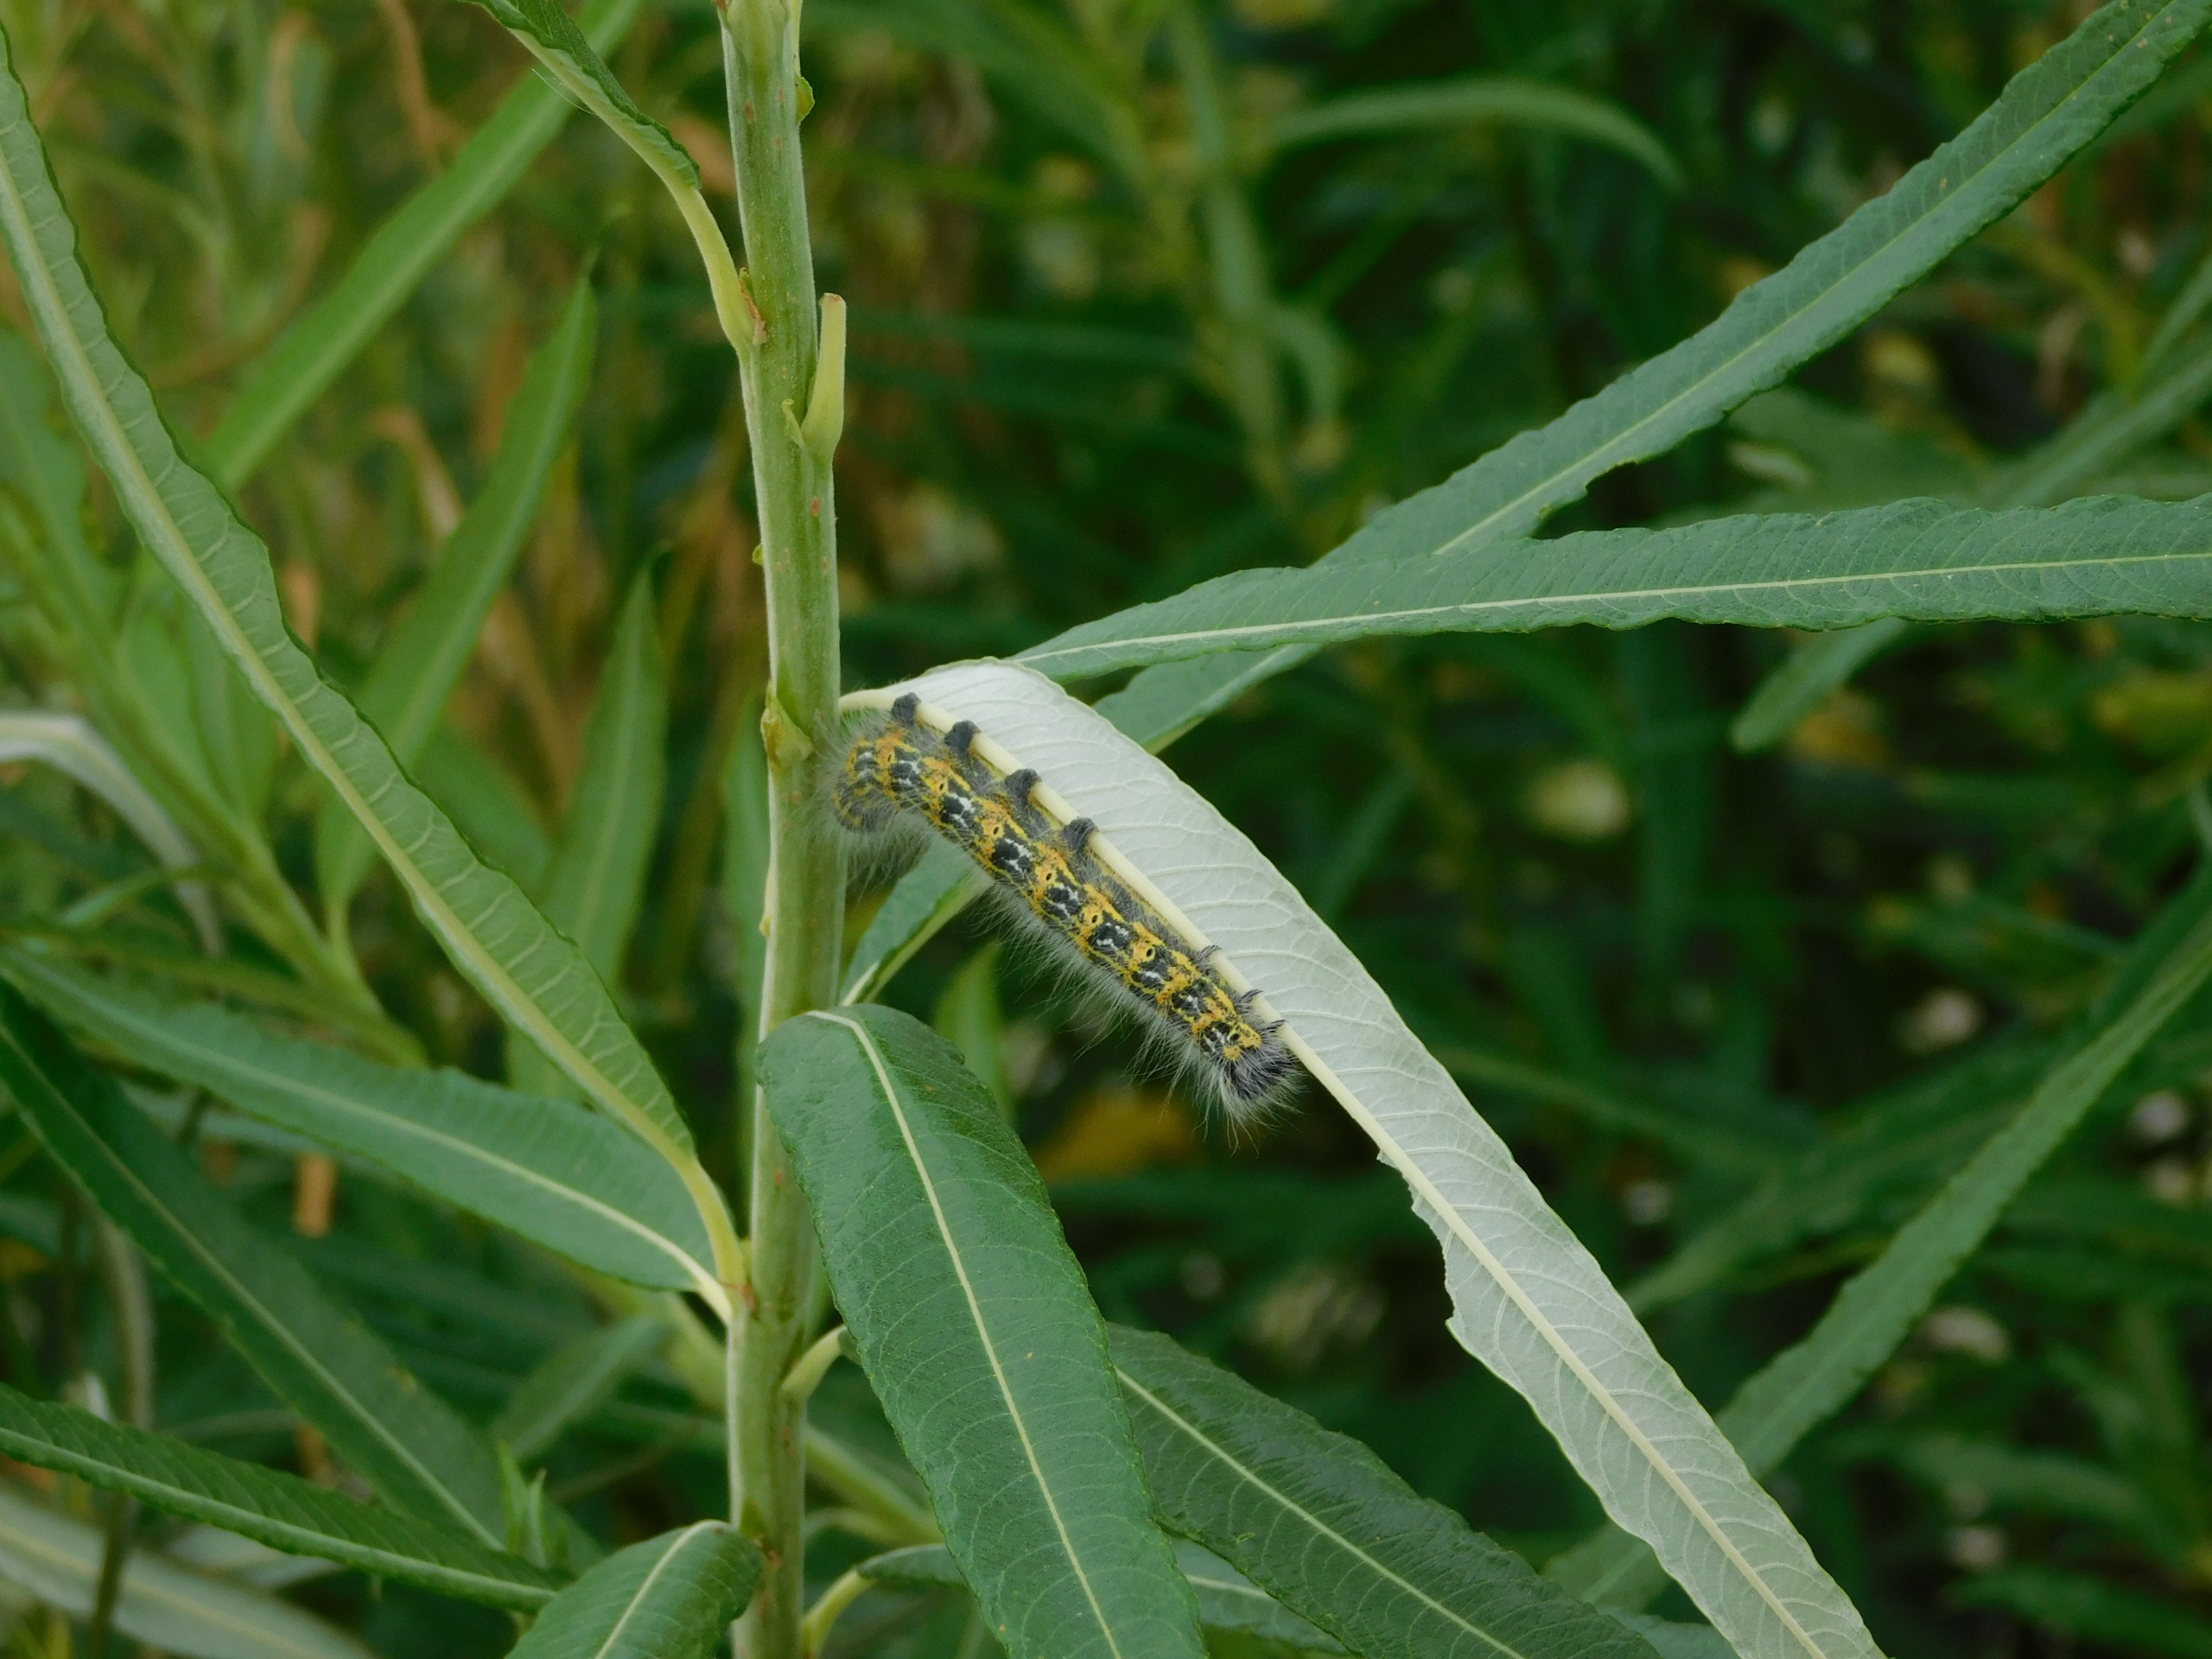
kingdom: Animalia
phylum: Arthropoda
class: Insecta
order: Lepidoptera
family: Notodontidae
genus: Phalera
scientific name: Phalera bucephala
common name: Måneplet
